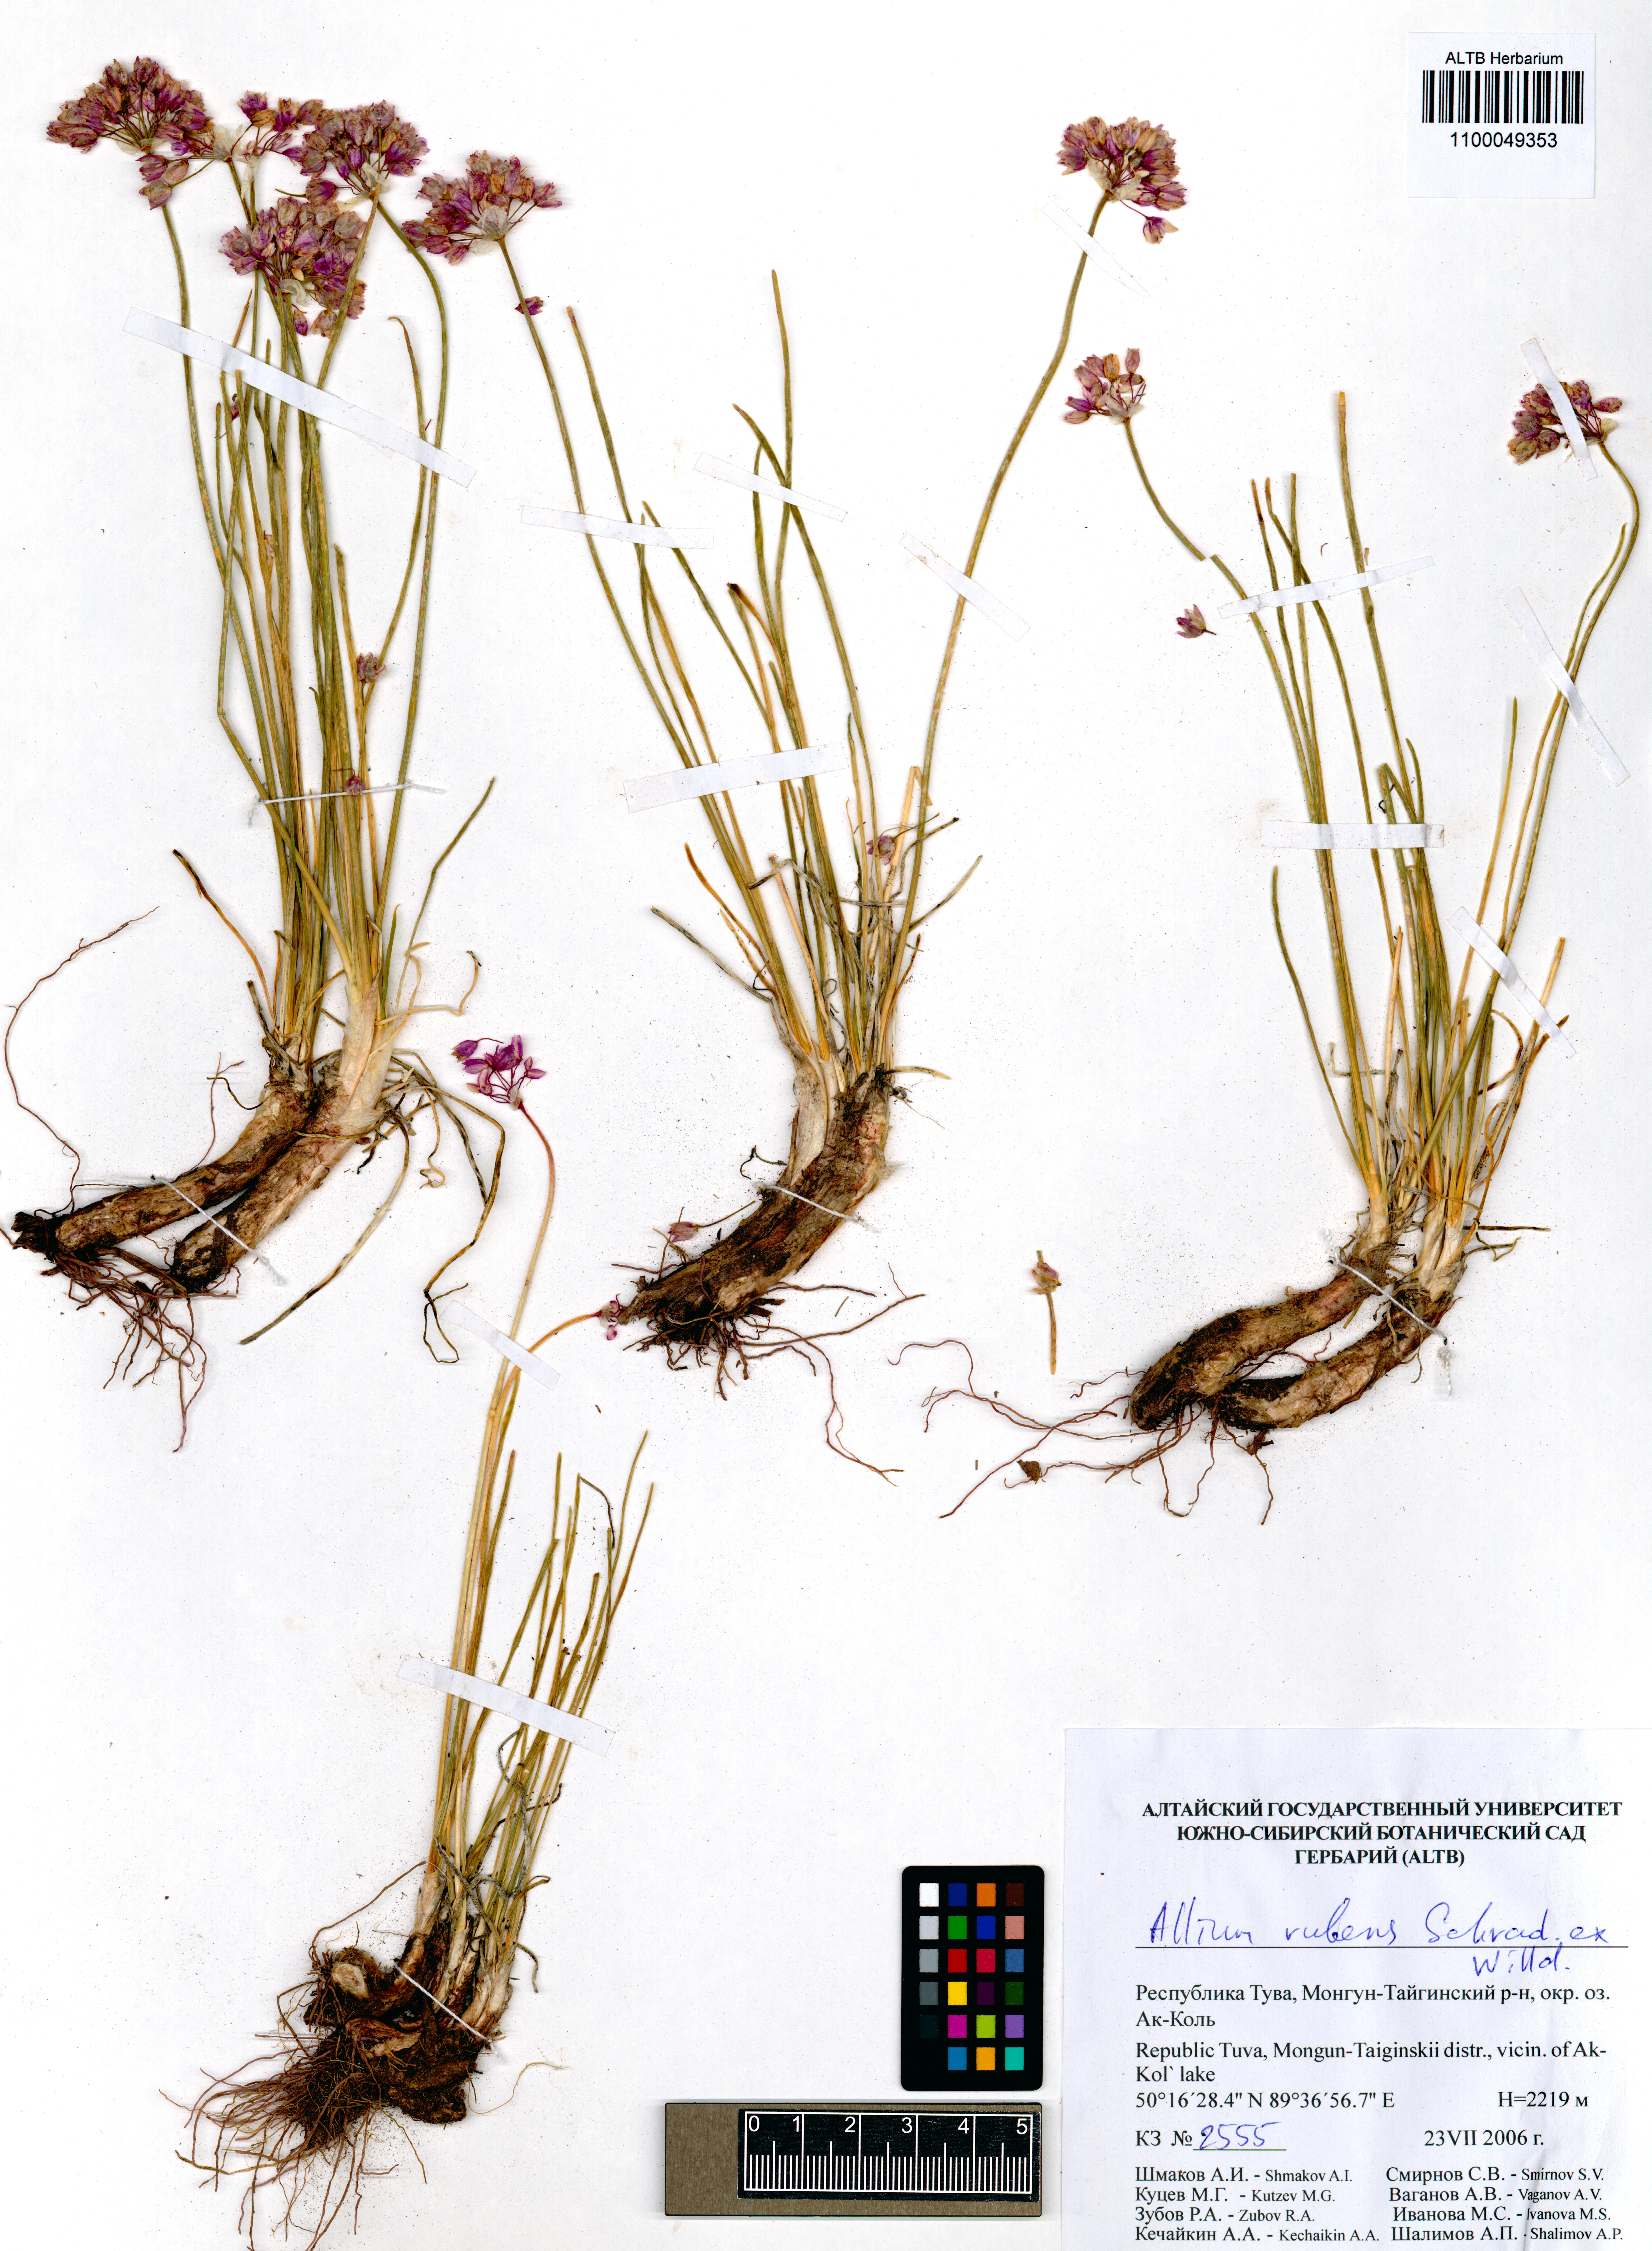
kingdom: Plantae
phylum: Tracheophyta
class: Liliopsida
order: Asparagales
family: Amaryllidaceae
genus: Allium
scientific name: Allium rubens
